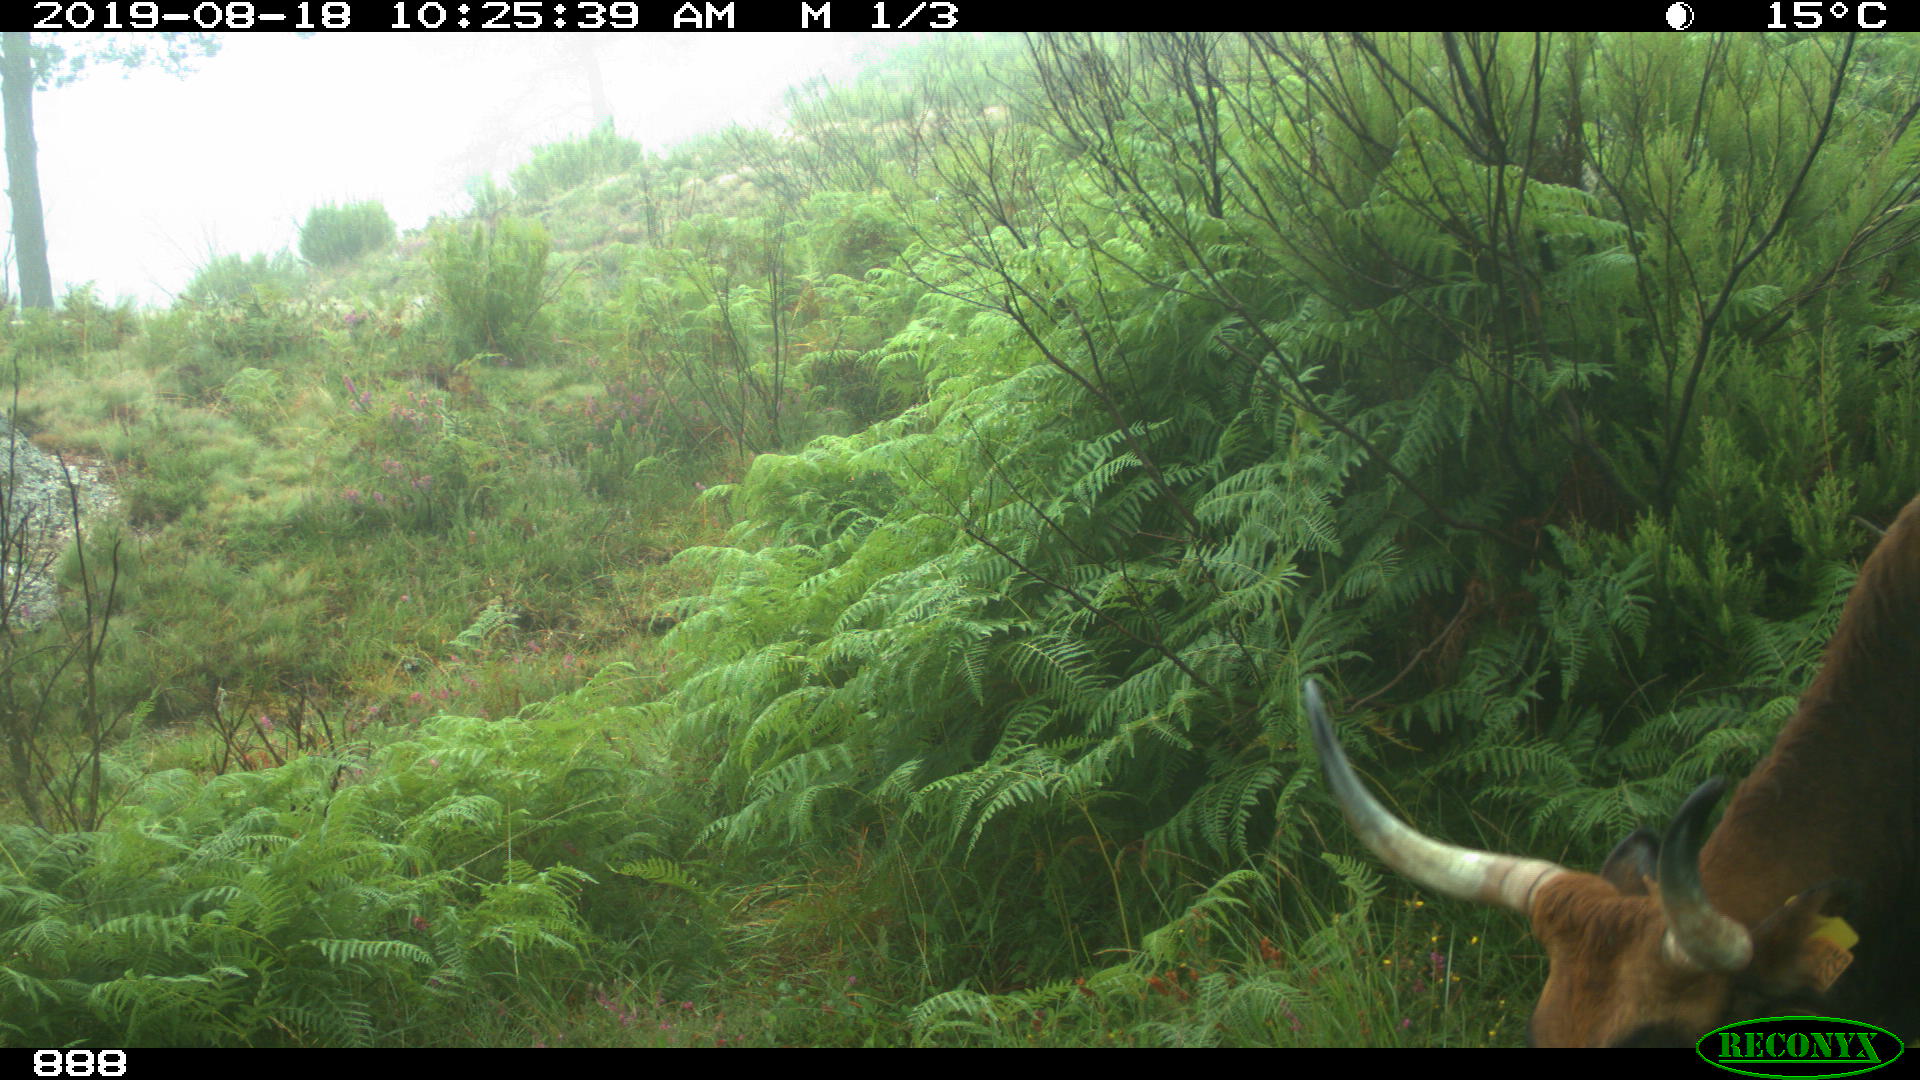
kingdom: Animalia
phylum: Chordata
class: Mammalia
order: Artiodactyla
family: Bovidae
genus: Bos
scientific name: Bos taurus
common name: Domesticated cattle
